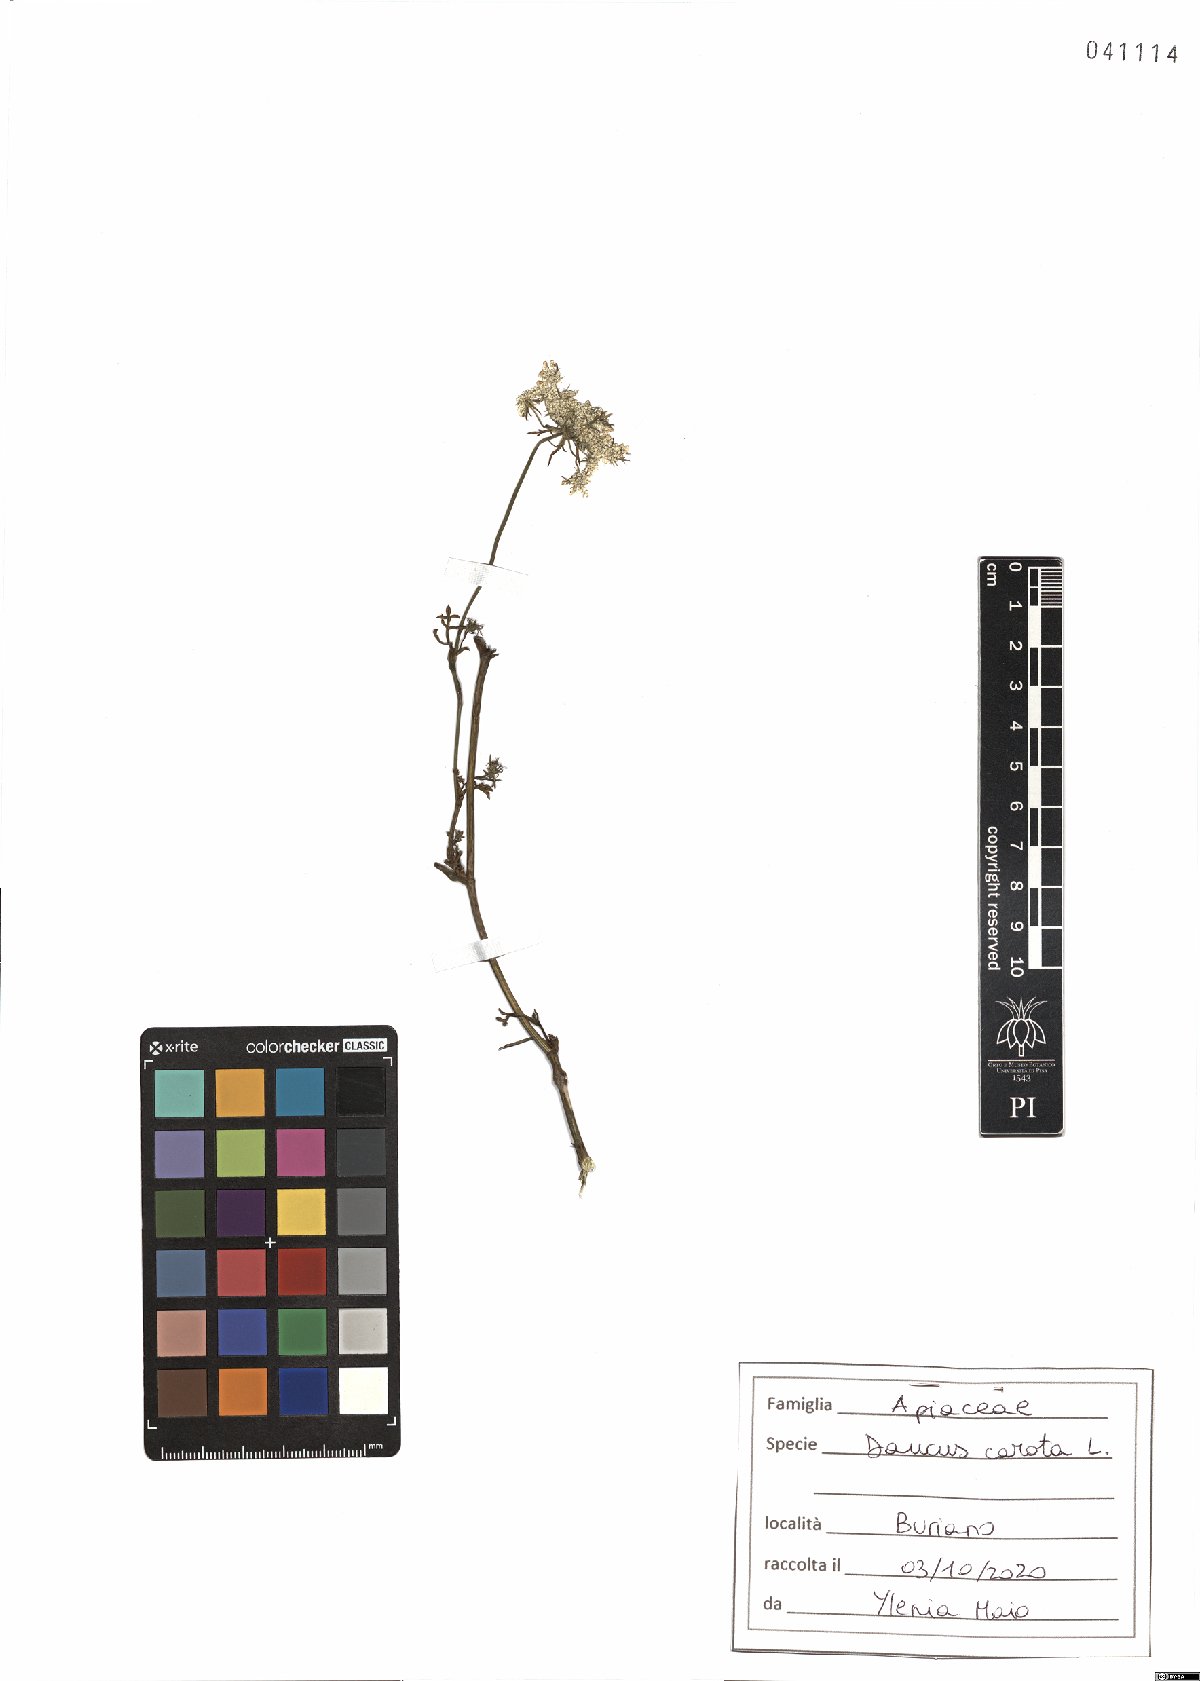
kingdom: Plantae
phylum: Tracheophyta
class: Magnoliopsida
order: Apiales
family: Apiaceae
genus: Daucus
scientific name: Daucus carota
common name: Wild carrot
